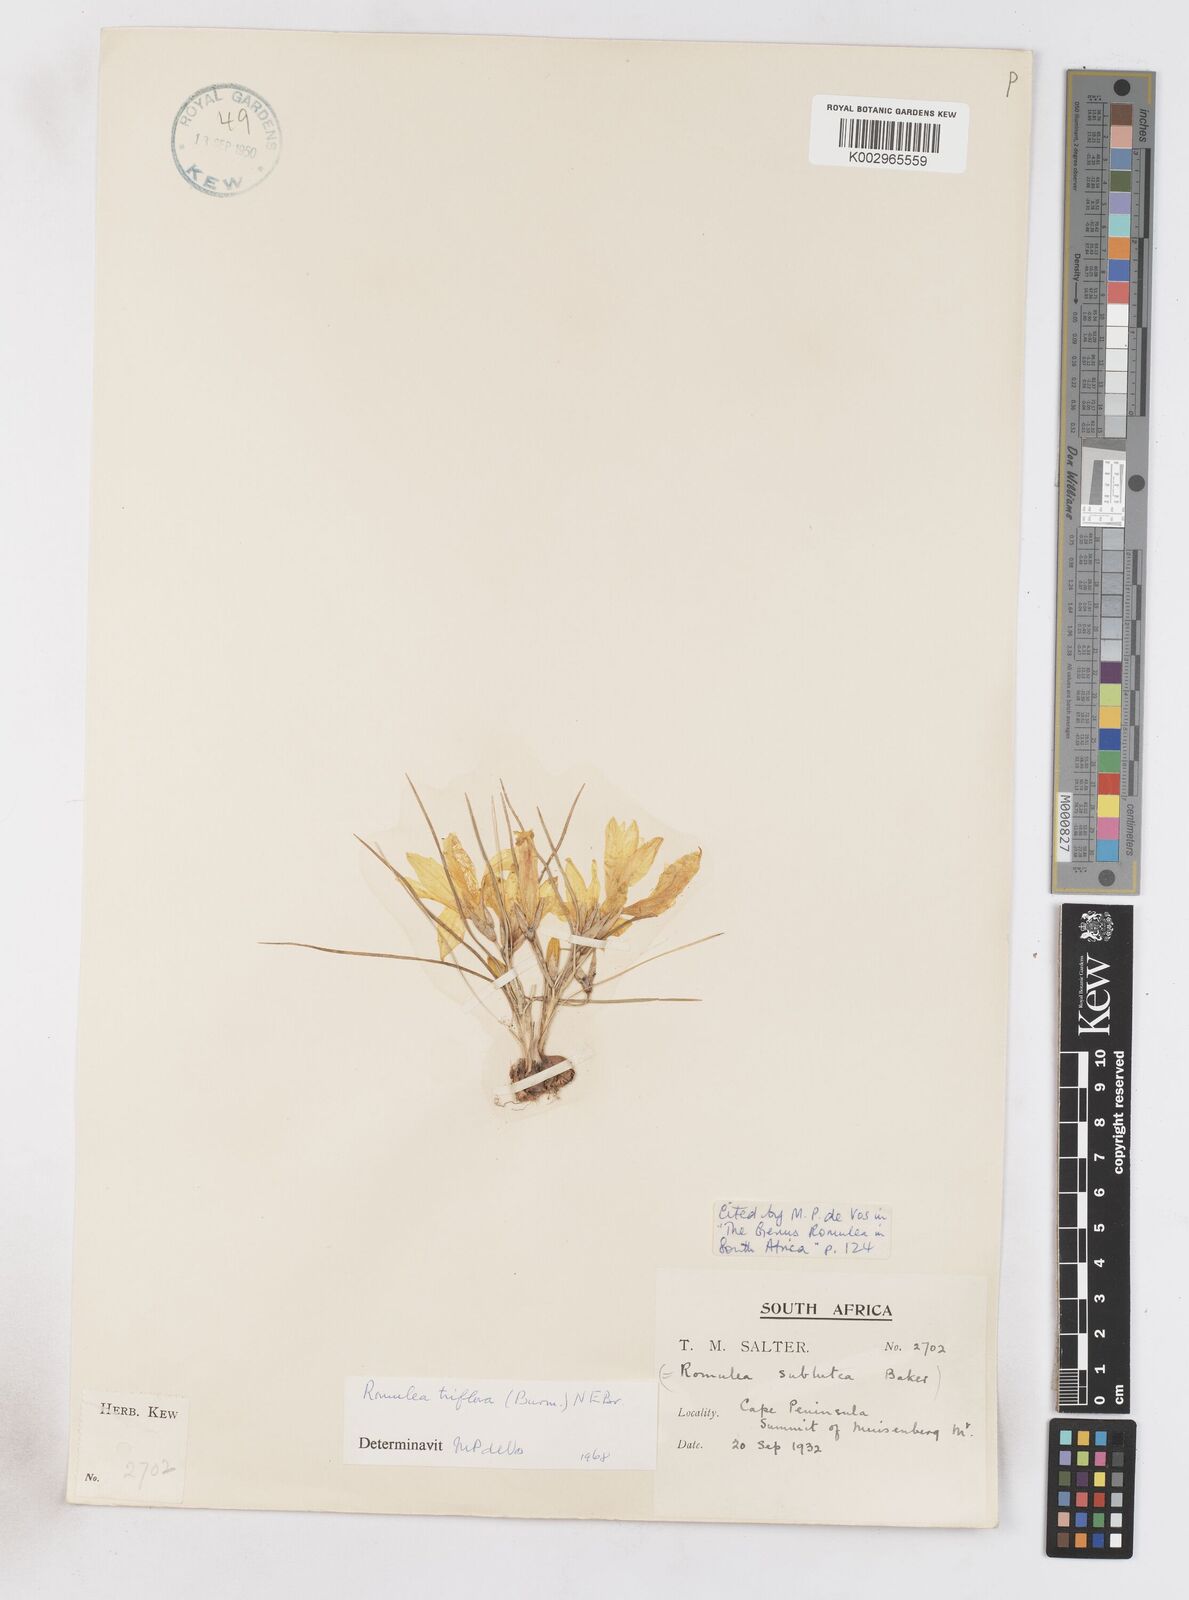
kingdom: Plantae
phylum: Tracheophyta
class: Liliopsida
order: Asparagales
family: Iridaceae
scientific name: Iridaceae
